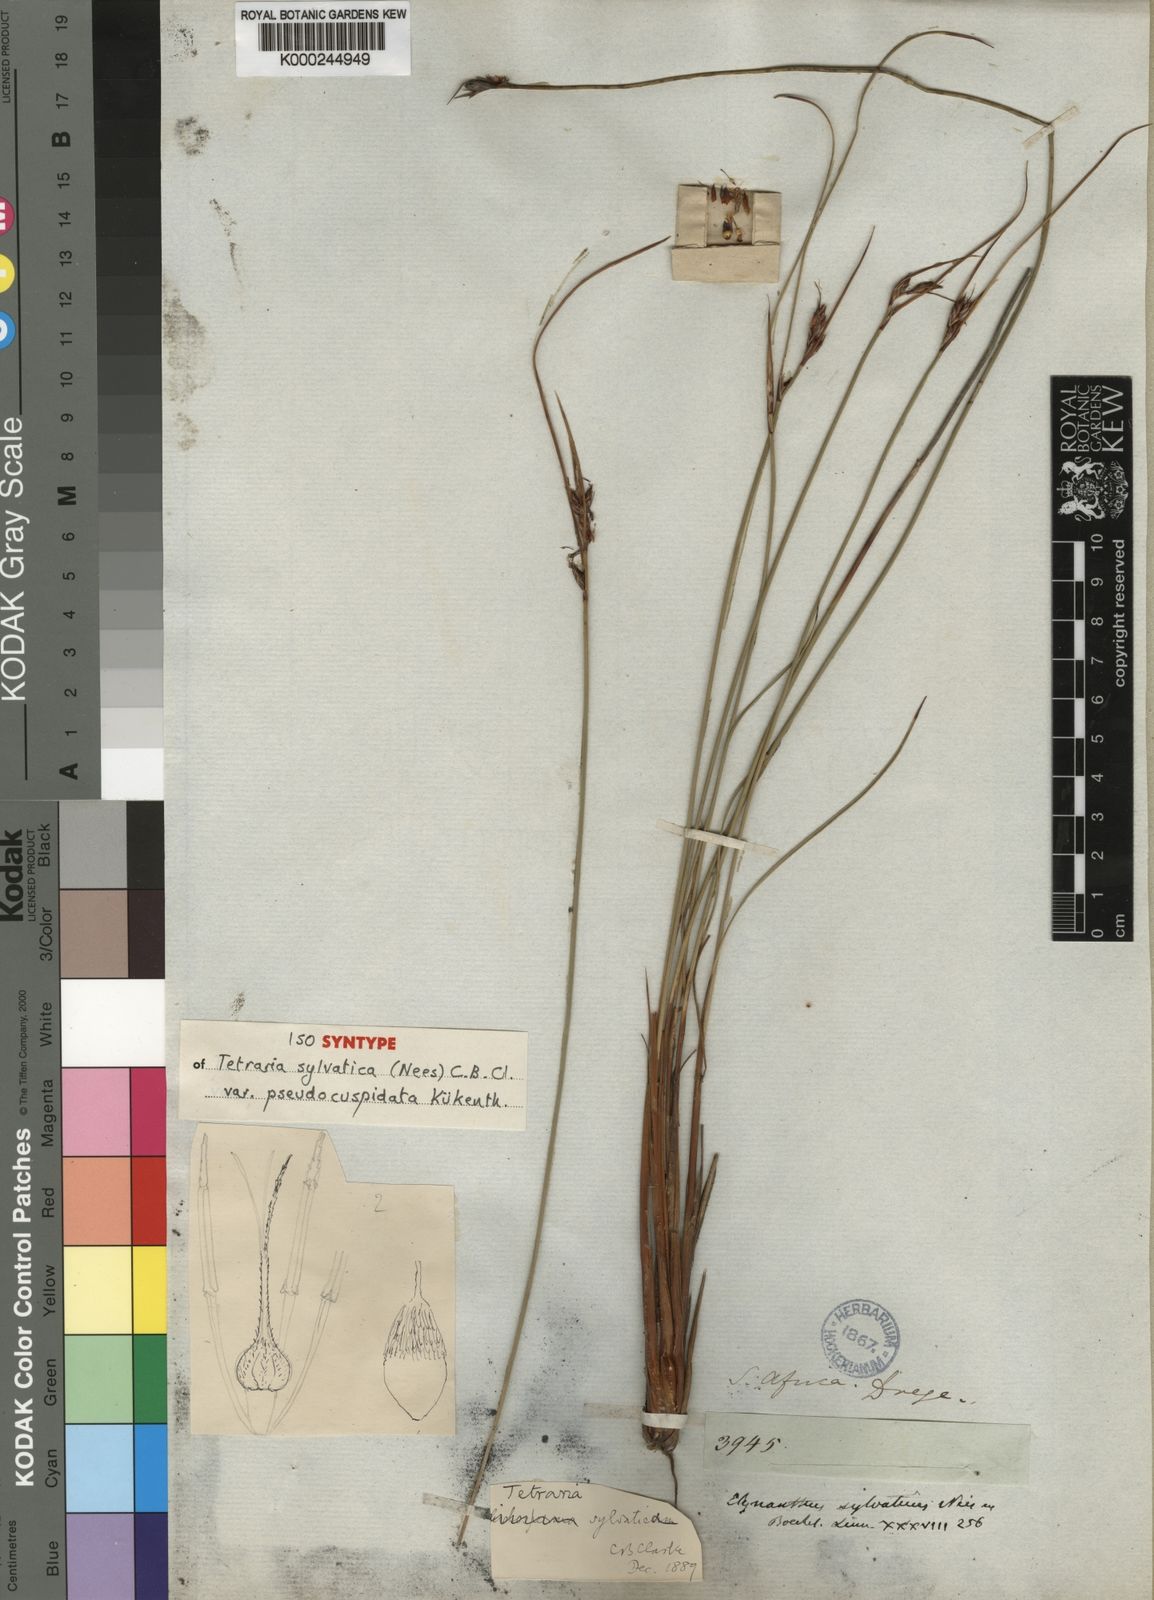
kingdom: Plantae
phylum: Tracheophyta
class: Liliopsida
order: Poales
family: Cyperaceae
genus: Schoenus
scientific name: Schoenus arenicola
